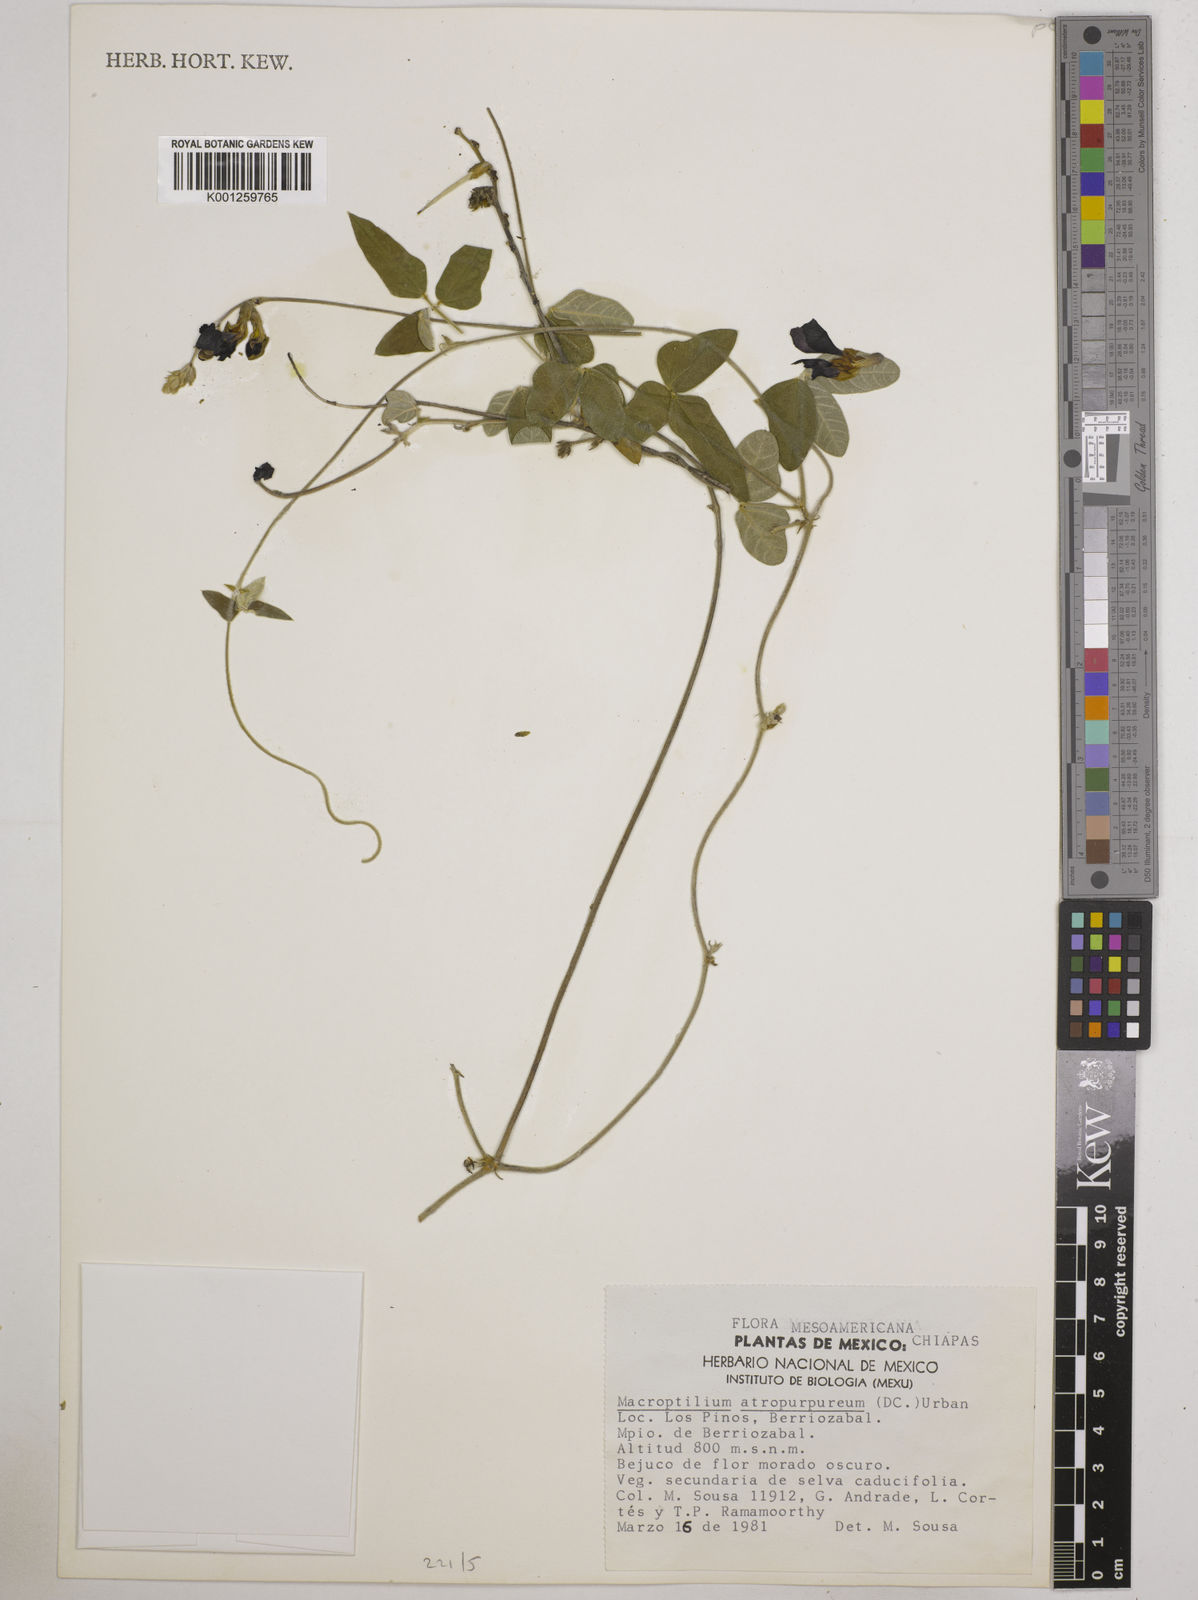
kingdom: Plantae
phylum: Tracheophyta
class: Magnoliopsida
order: Fabales
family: Fabaceae
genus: Macroptilium
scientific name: Macroptilium atropurpureum
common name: Purple bushbean
